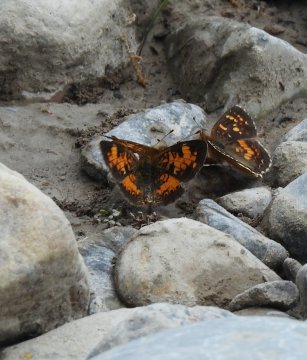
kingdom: Animalia
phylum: Arthropoda
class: Insecta
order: Lepidoptera
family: Nymphalidae
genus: Phyciodes
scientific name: Phyciodes tharos
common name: Northern Crescent
